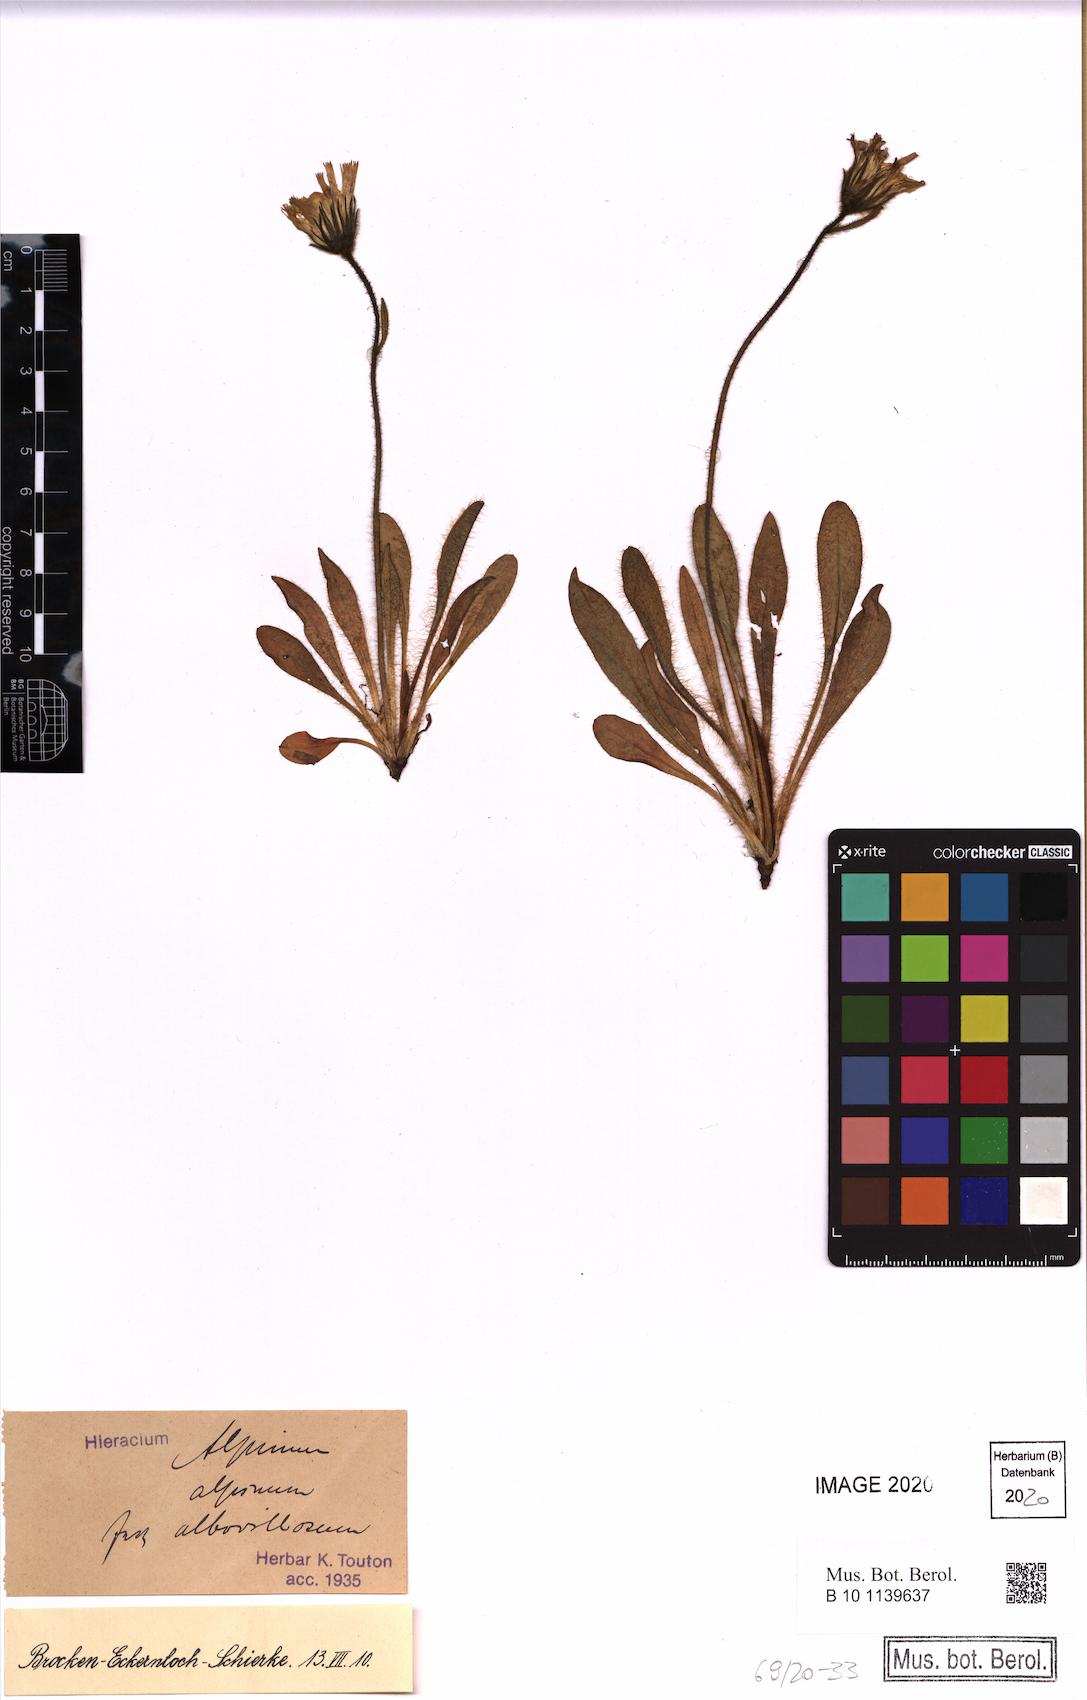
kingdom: Plantae
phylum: Tracheophyta
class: Magnoliopsida
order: Asterales
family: Asteraceae
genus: Hieracium
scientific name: Hieracium alpinum
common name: Alpine hawkweed
